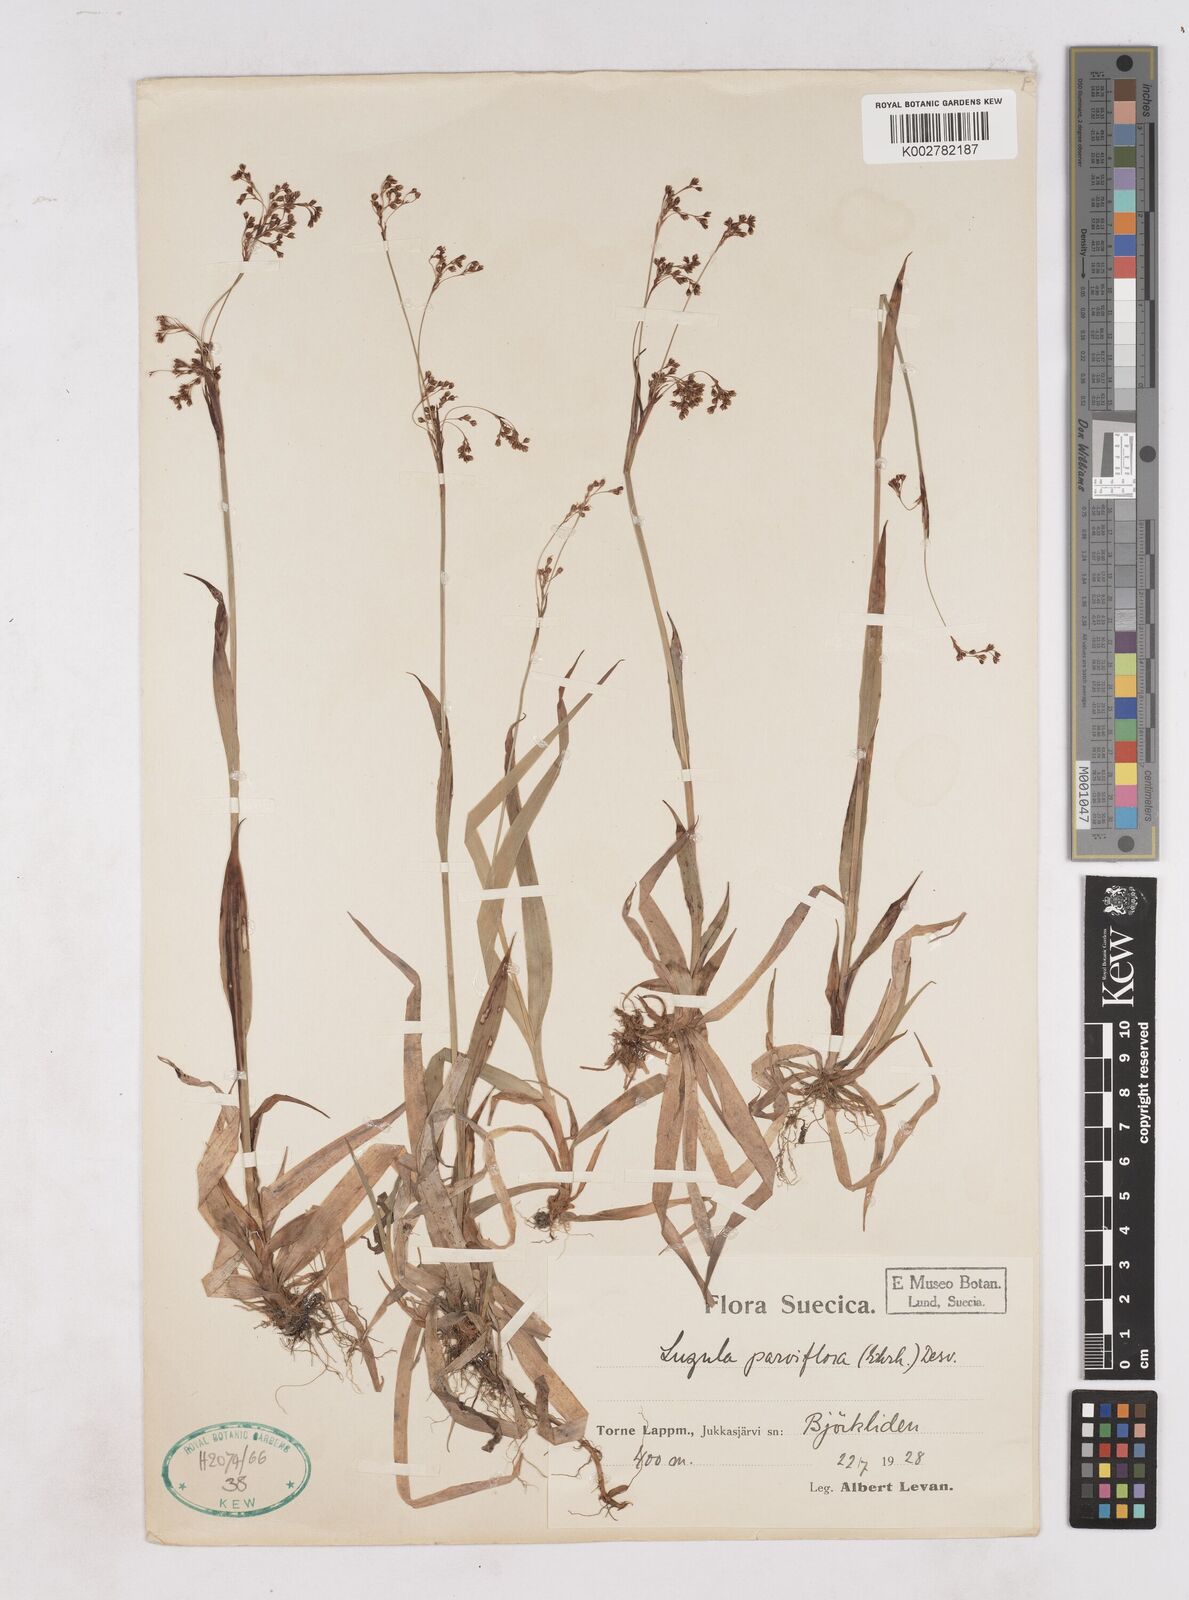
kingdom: Plantae
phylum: Tracheophyta
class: Liliopsida
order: Poales
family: Juncaceae
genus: Luzula
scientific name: Luzula parviflora
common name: Millet woodrush
